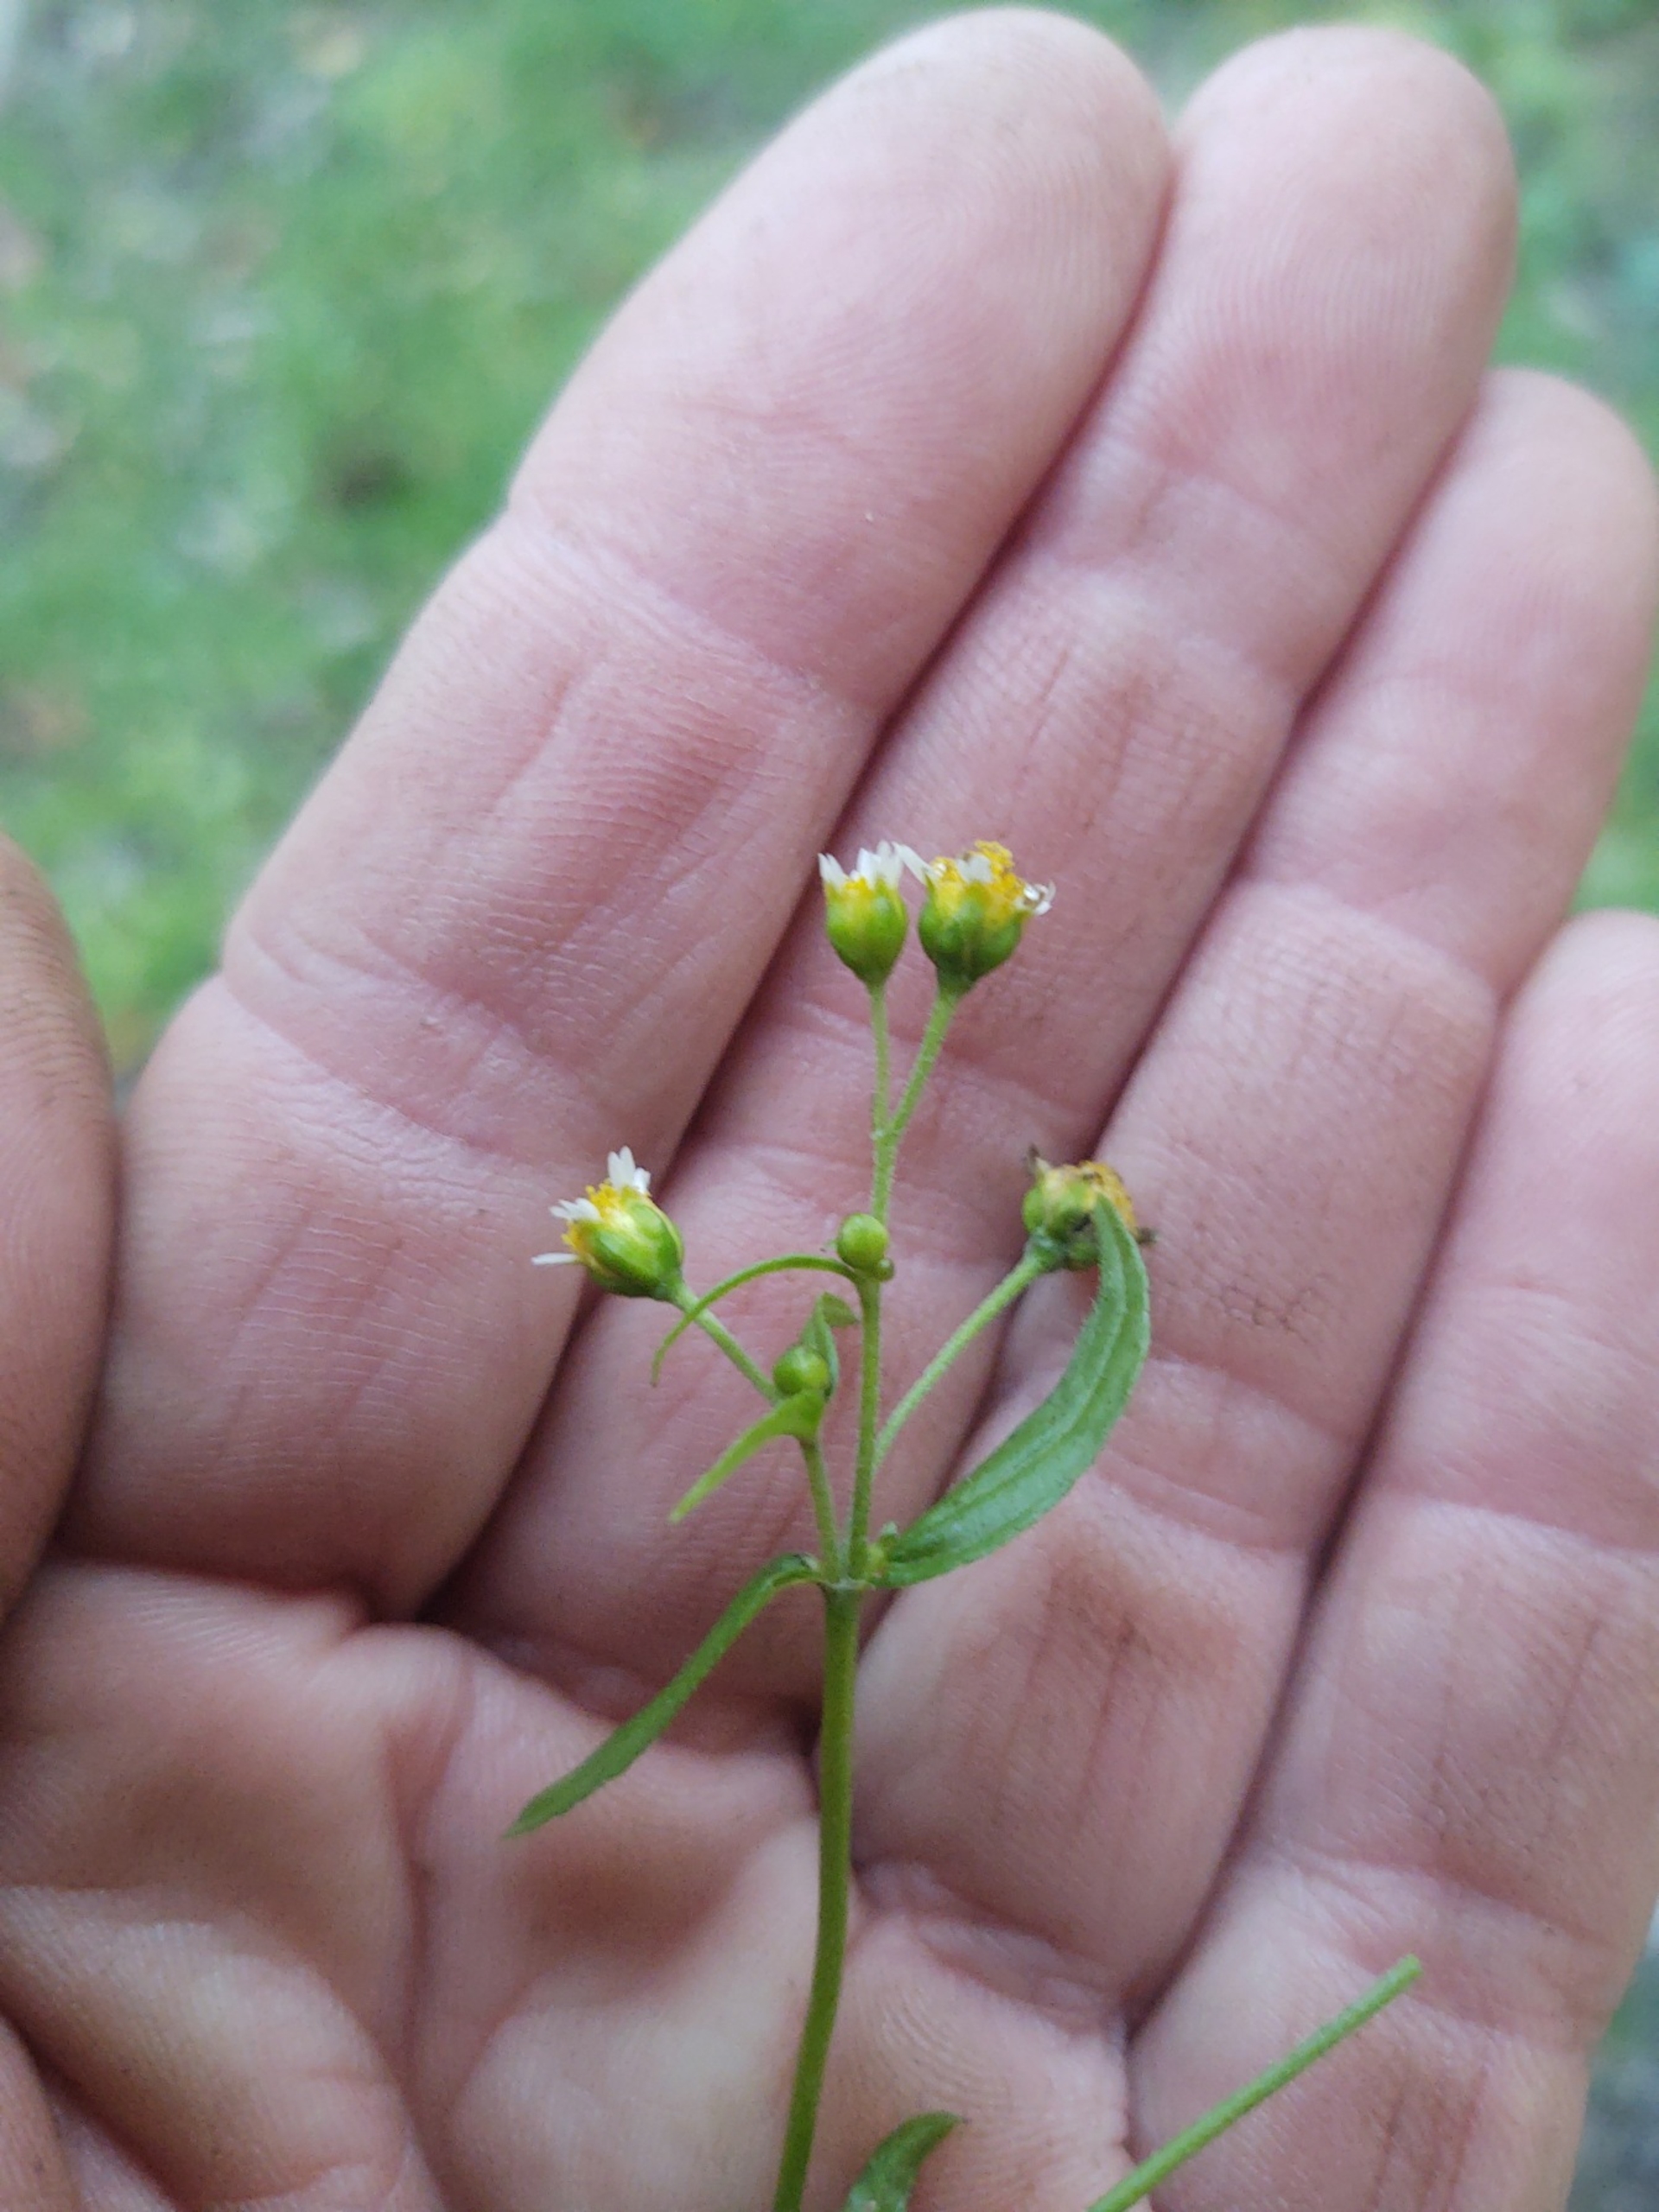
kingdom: Plantae
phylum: Tracheophyta
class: Magnoliopsida
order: Asterales
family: Asteraceae
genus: Galinsoga
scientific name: Galinsoga parviflora
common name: Håret kortstråle
